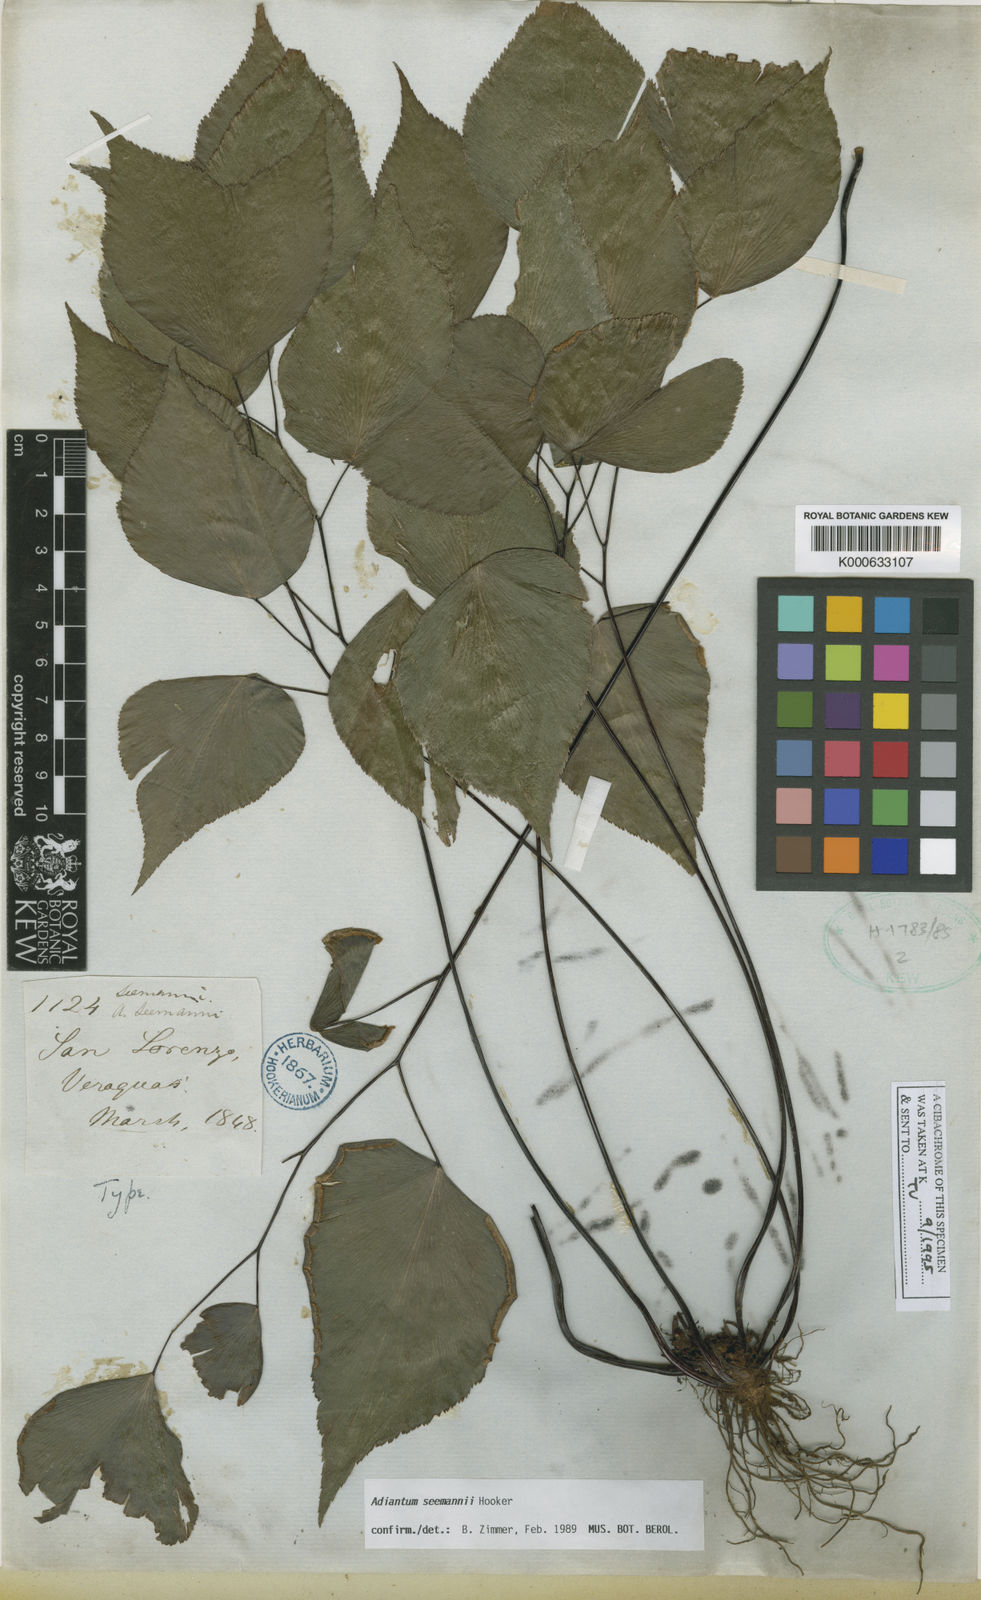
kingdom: Plantae
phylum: Tracheophyta
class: Polypodiopsida
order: Polypodiales
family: Pteridaceae
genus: Adiantum
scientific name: Adiantum platyphyllum
